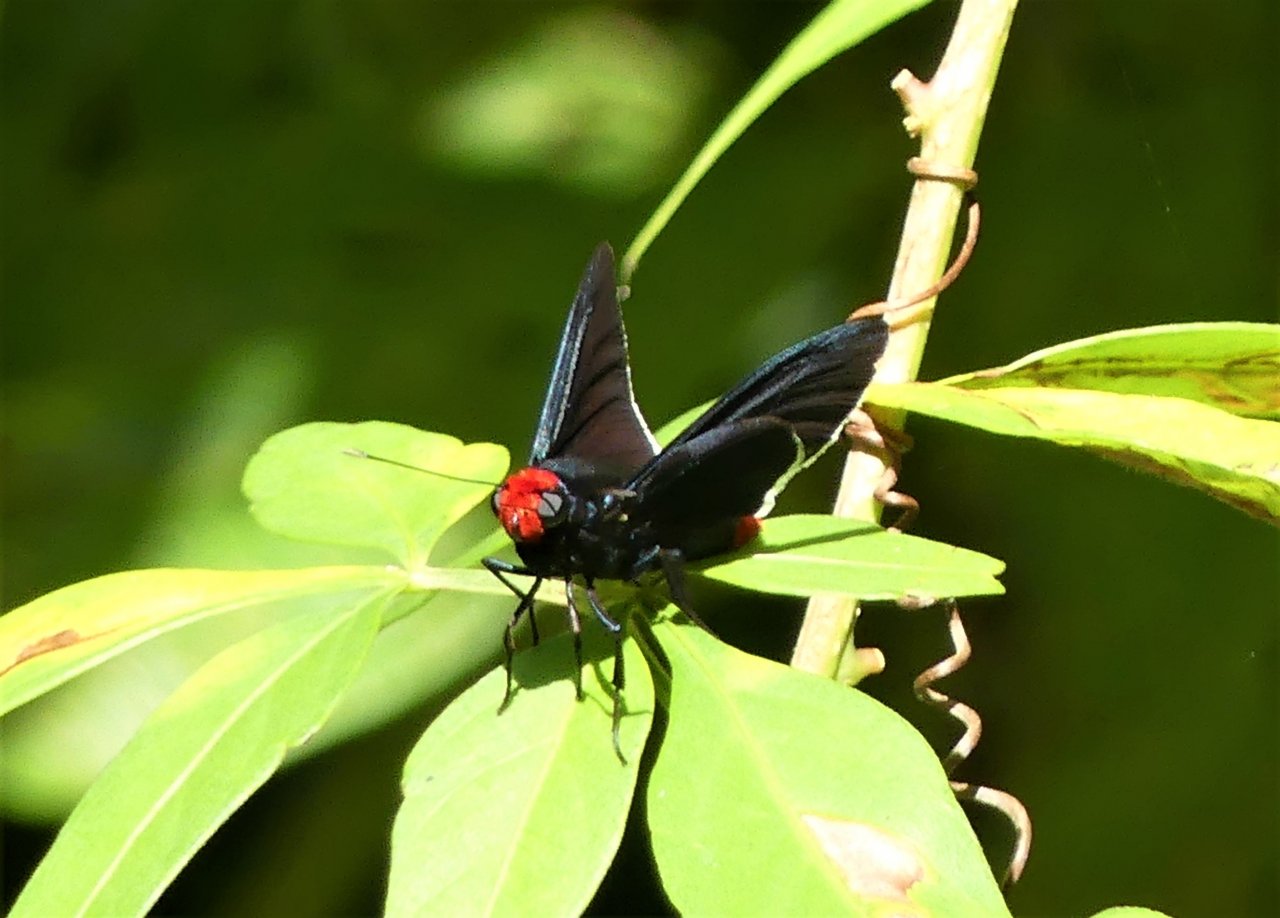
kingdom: Animalia
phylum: Arthropoda
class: Insecta
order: Lepidoptera
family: Hesperiidae
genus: Pyrrhopyge
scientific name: Pyrrhopyge phidias
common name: Red-headed Firetip
